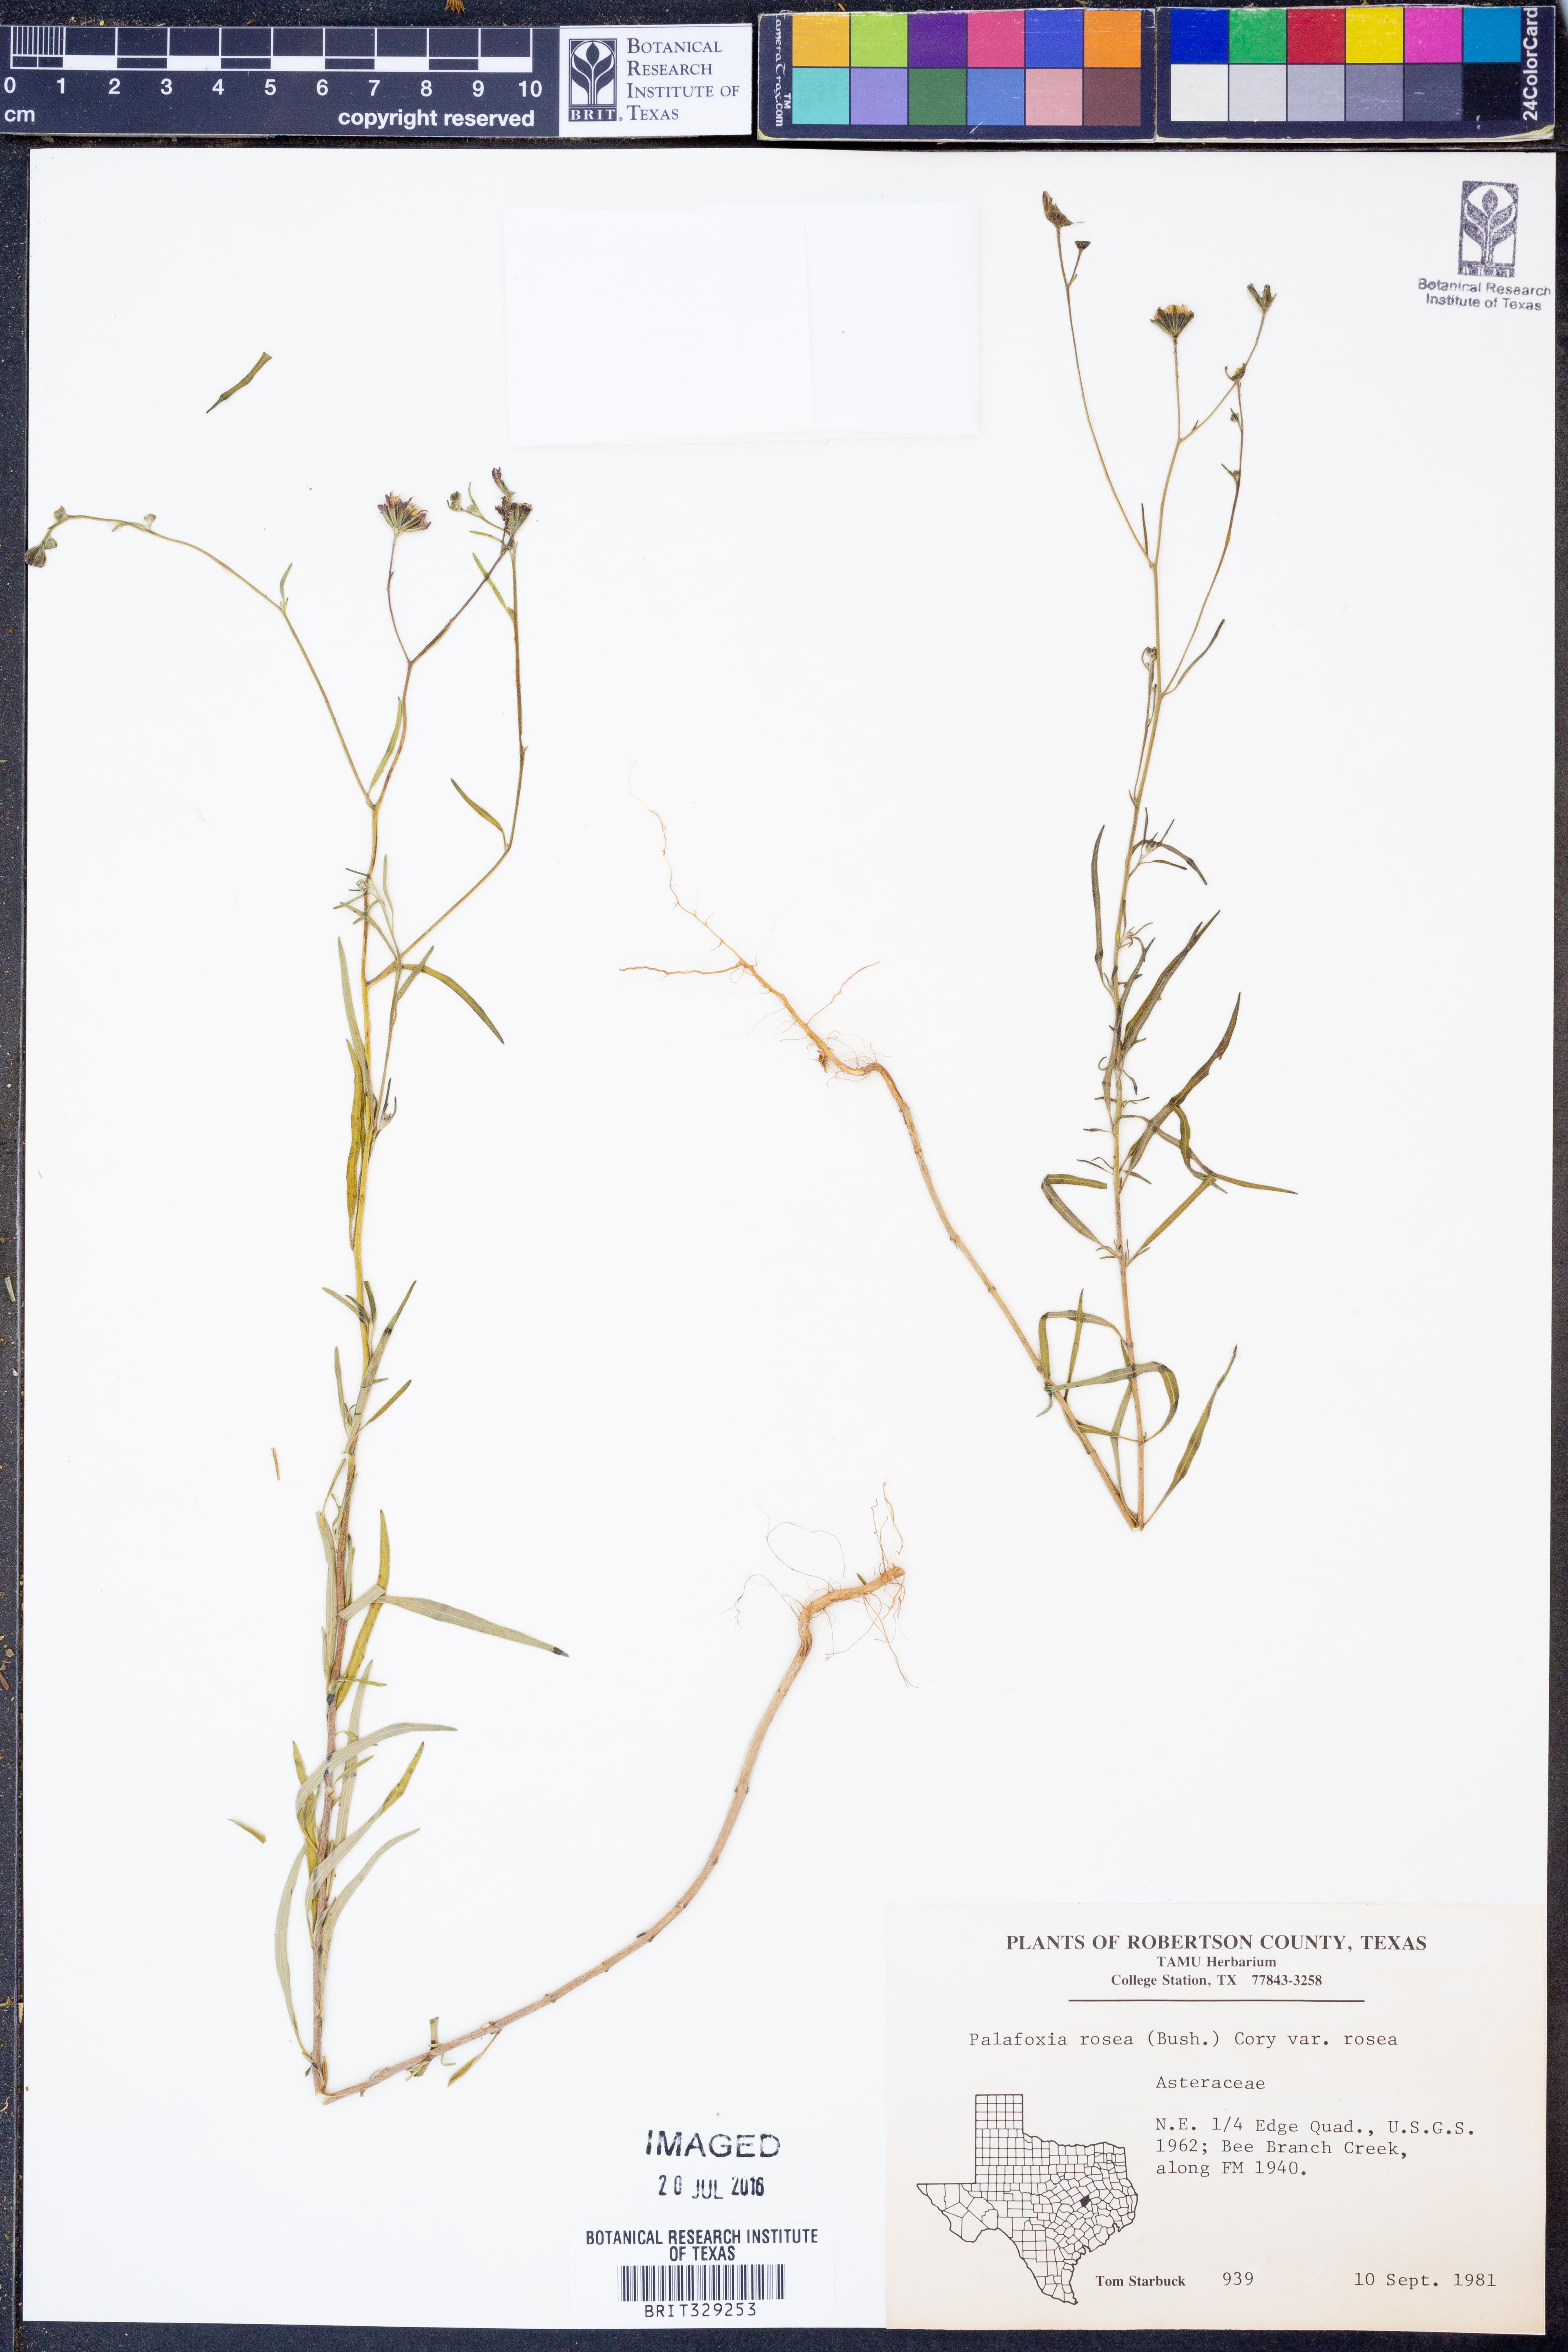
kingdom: Plantae
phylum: Tracheophyta
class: Magnoliopsida
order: Asterales
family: Asteraceae
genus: Palafoxia
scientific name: Palafoxia rosea
